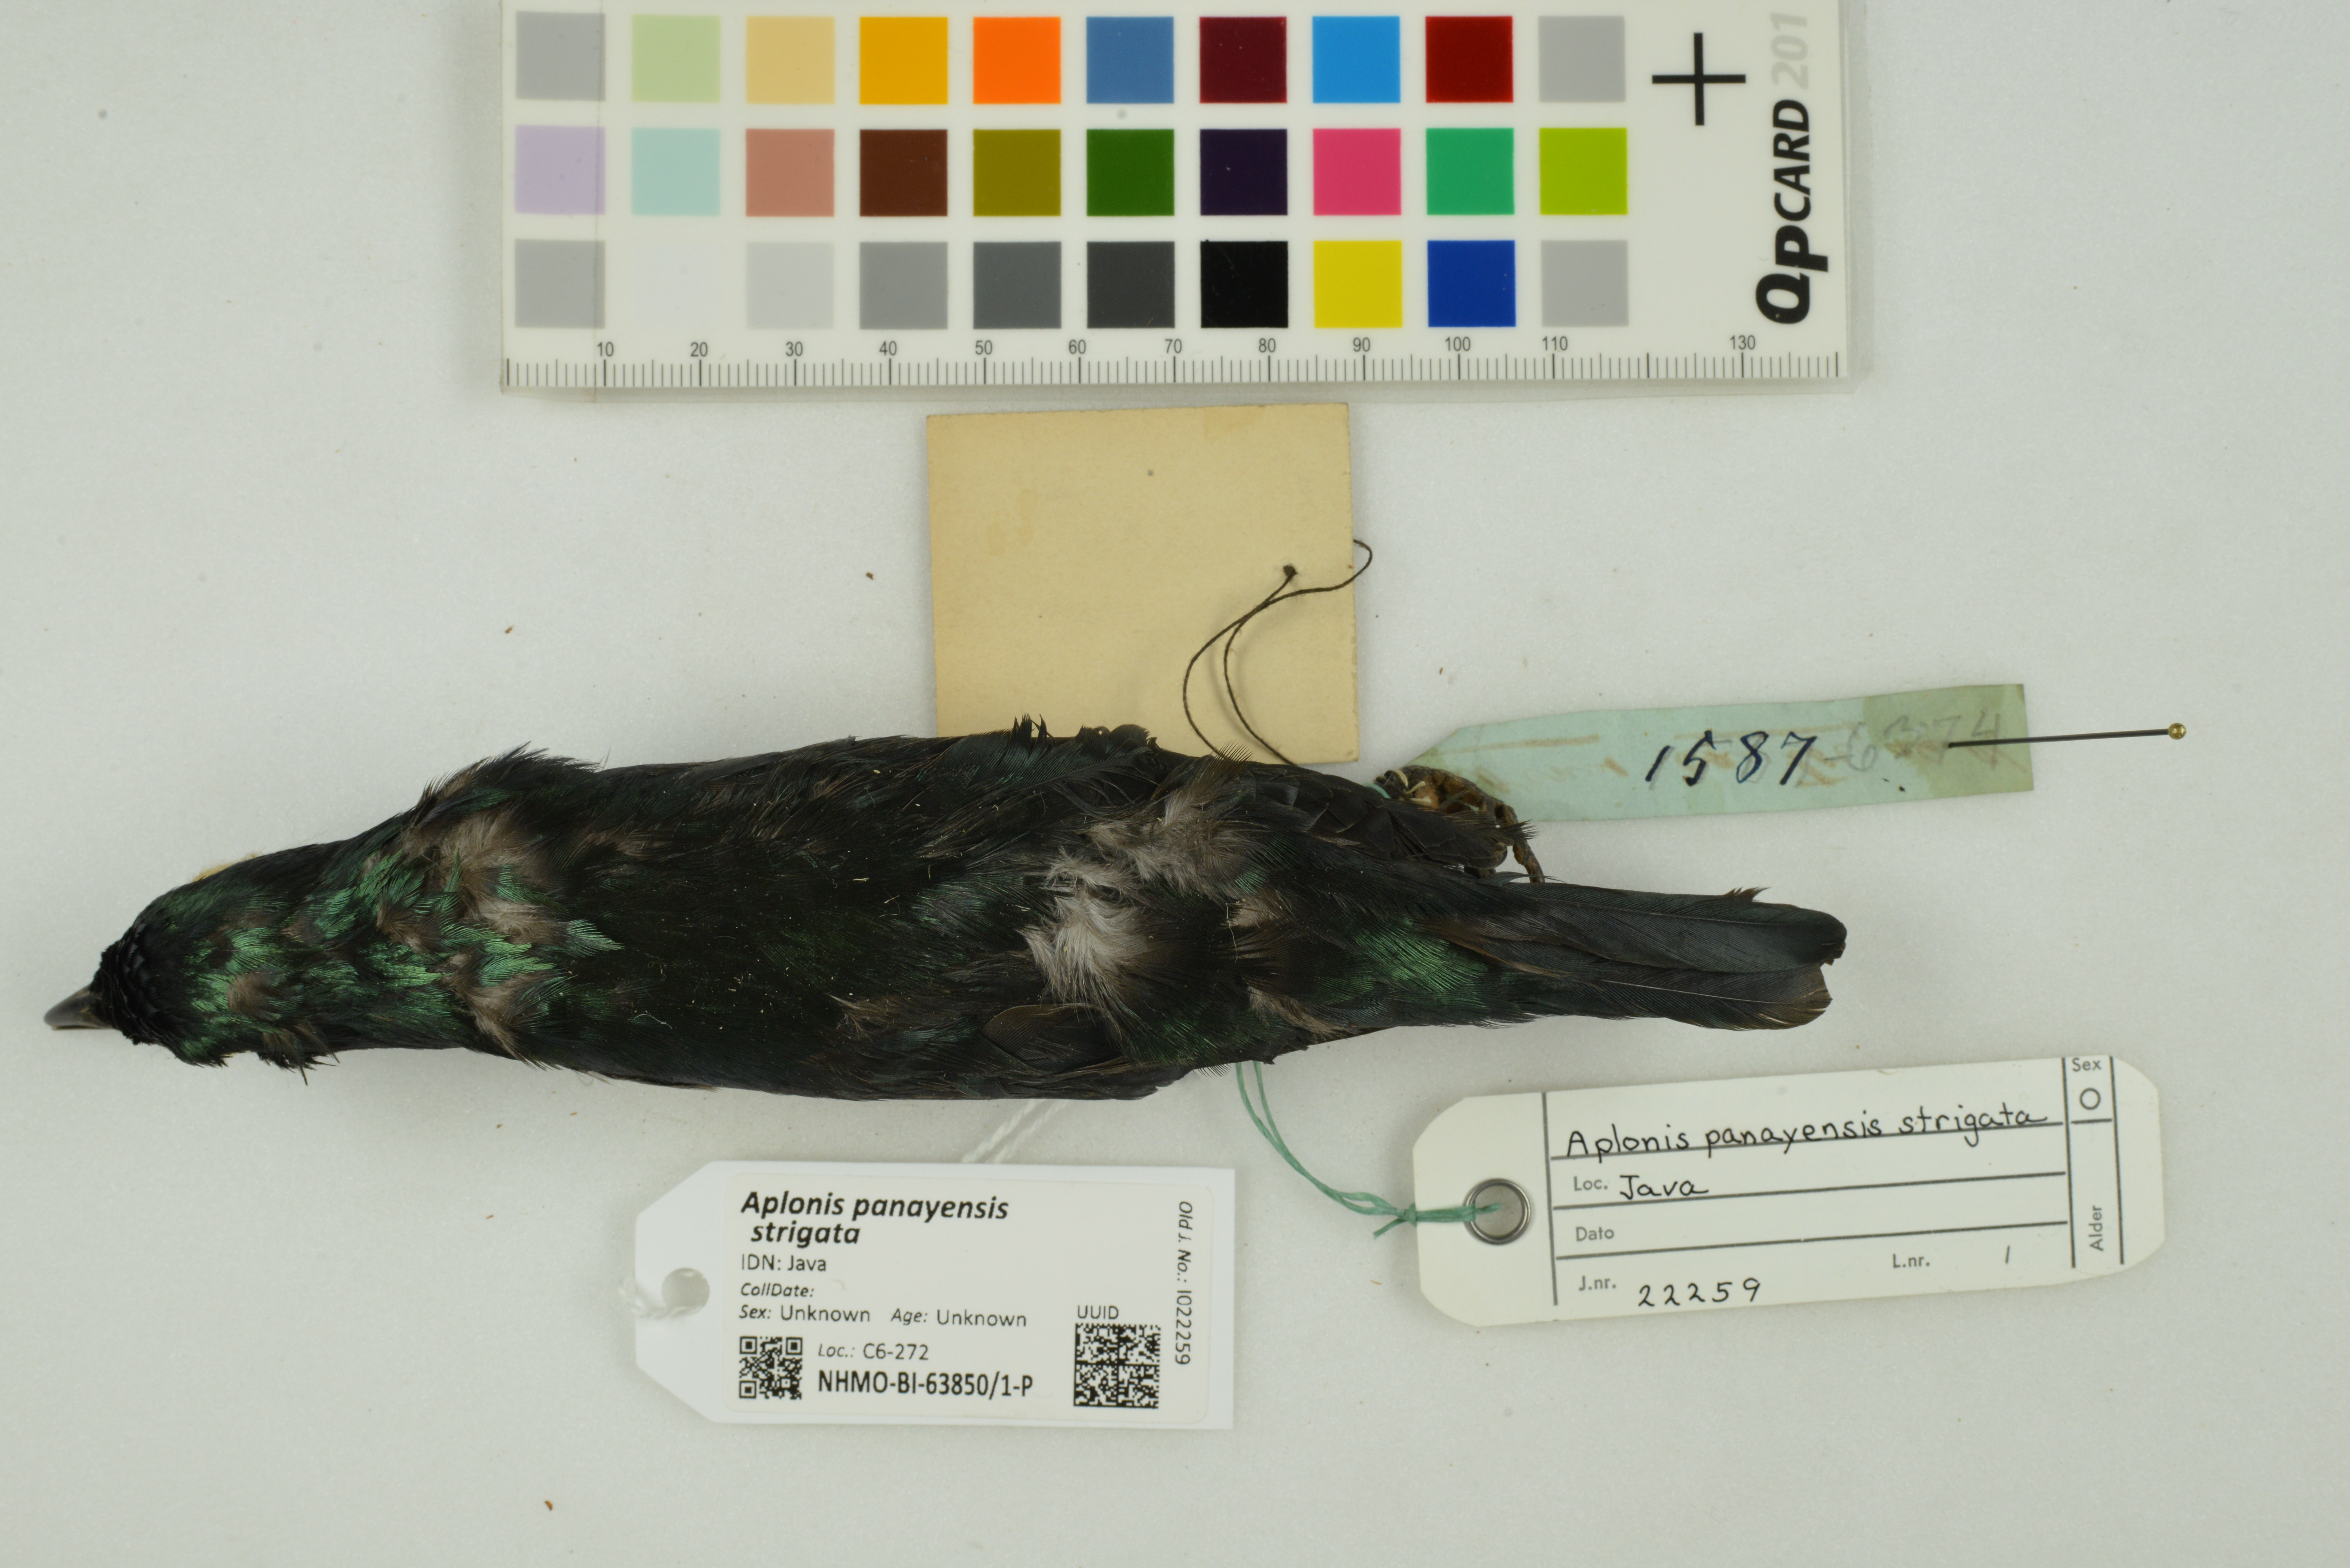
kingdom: Animalia
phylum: Chordata
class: Aves
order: Passeriformes
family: Sturnidae
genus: Aplonis
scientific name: Aplonis panayensis
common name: Asian glossy starling
